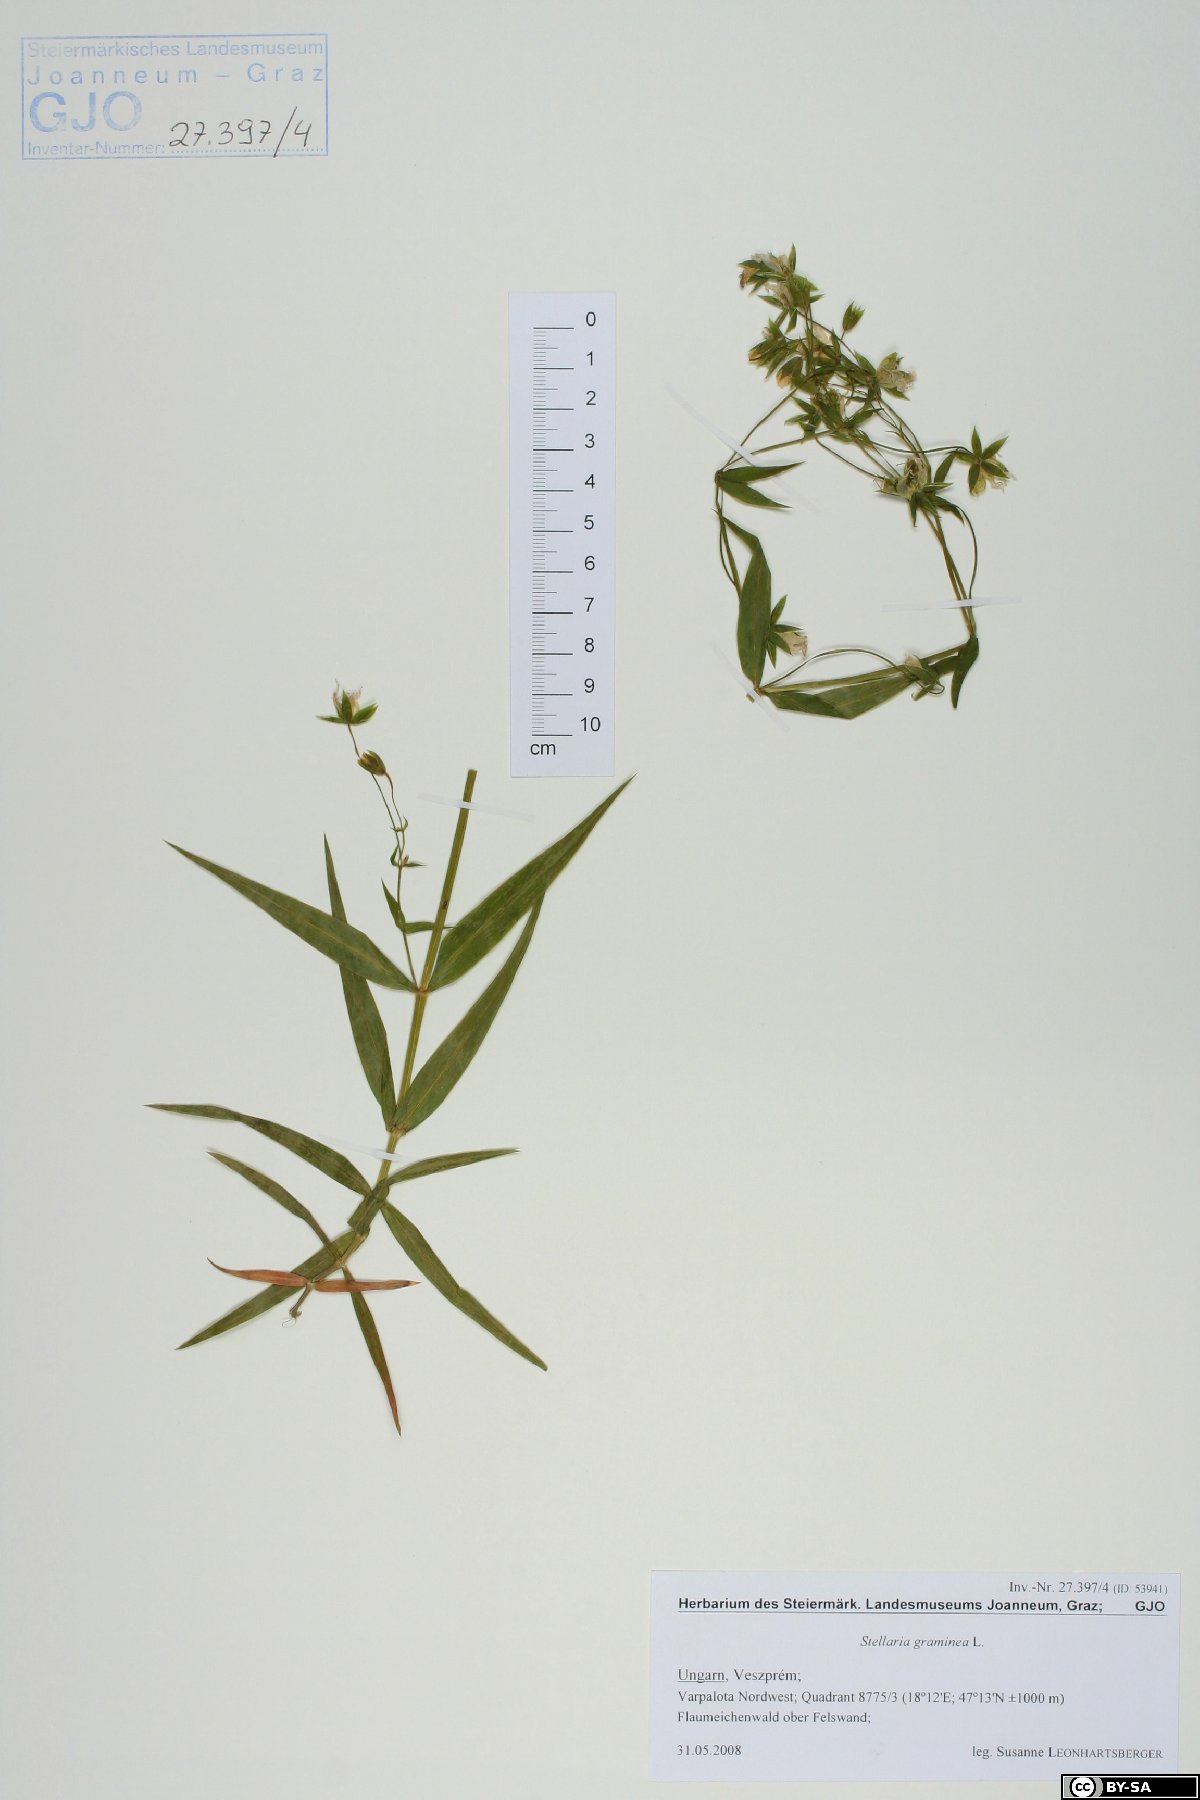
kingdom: Plantae
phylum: Tracheophyta
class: Magnoliopsida
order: Caryophyllales
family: Caryophyllaceae
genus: Stellaria
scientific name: Stellaria graminea
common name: Grass-like starwort
